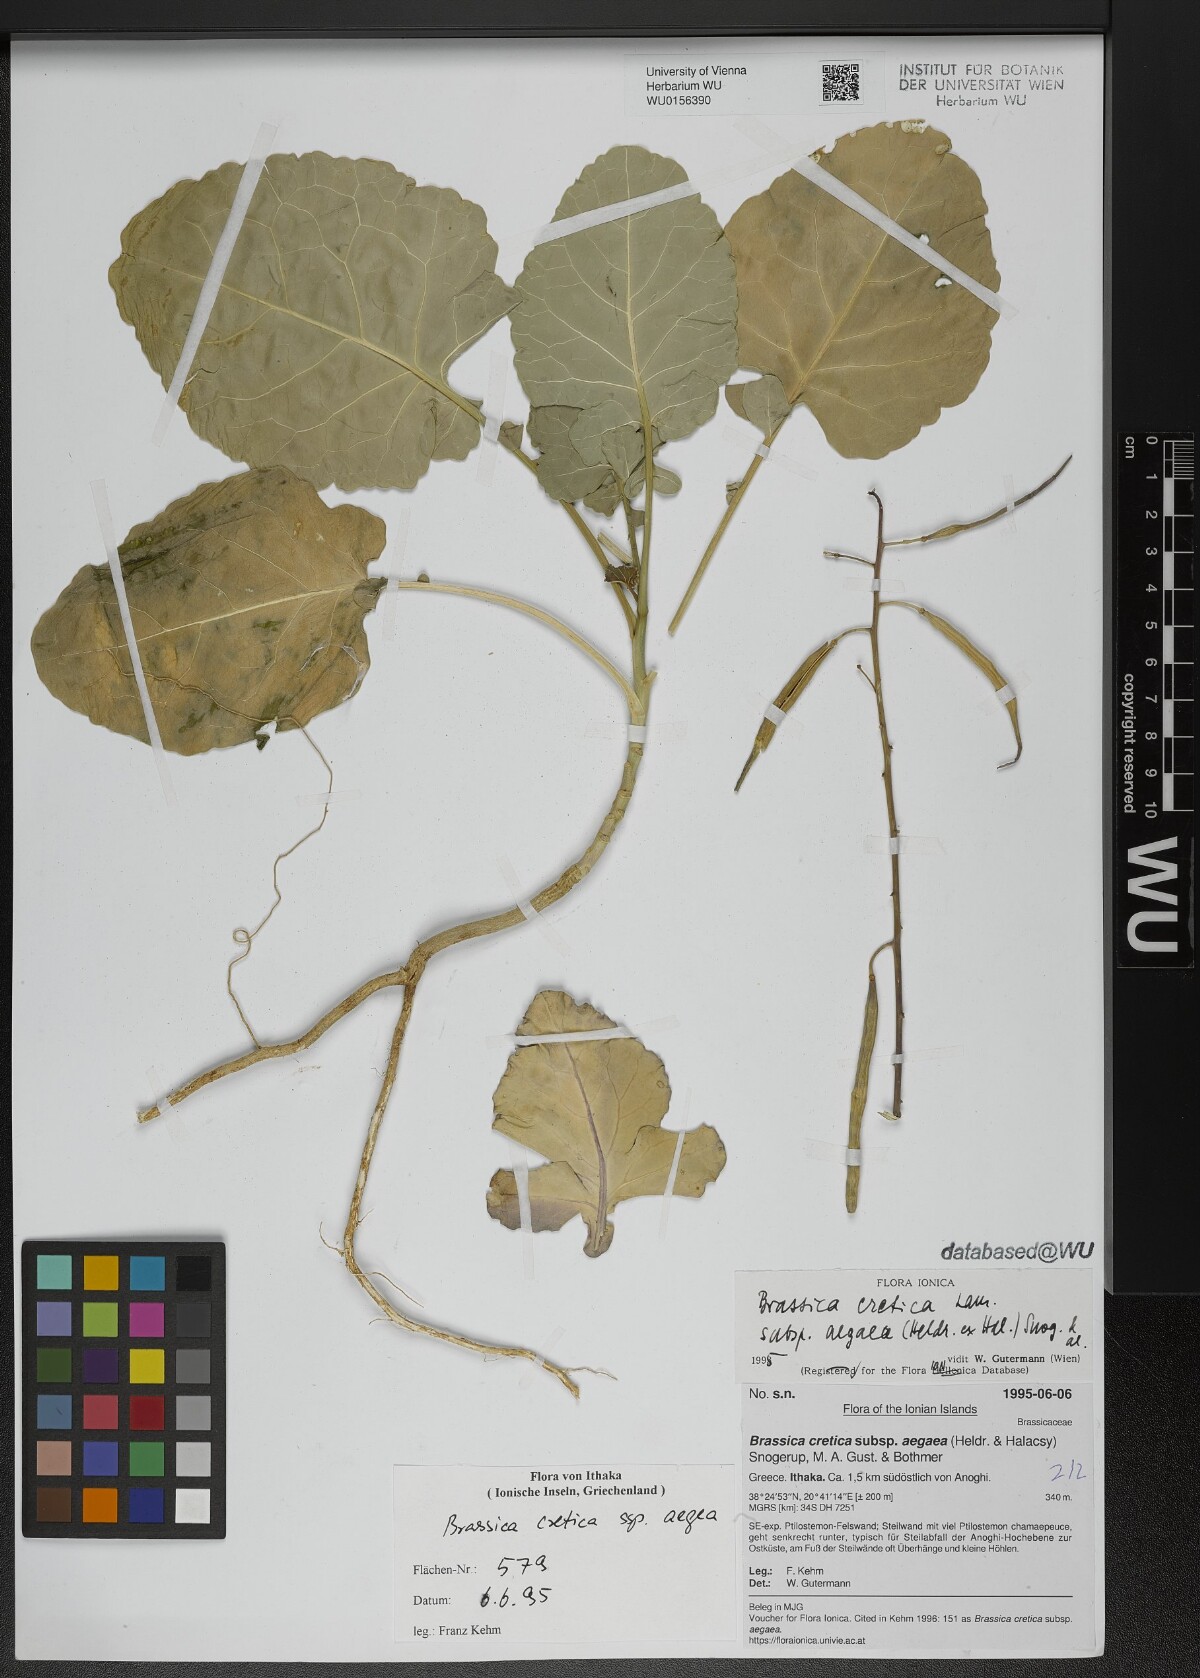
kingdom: Plantae
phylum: Tracheophyta
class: Magnoliopsida
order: Brassicales
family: Brassicaceae
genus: Brassica
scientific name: Brassica cretica
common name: Mustard
